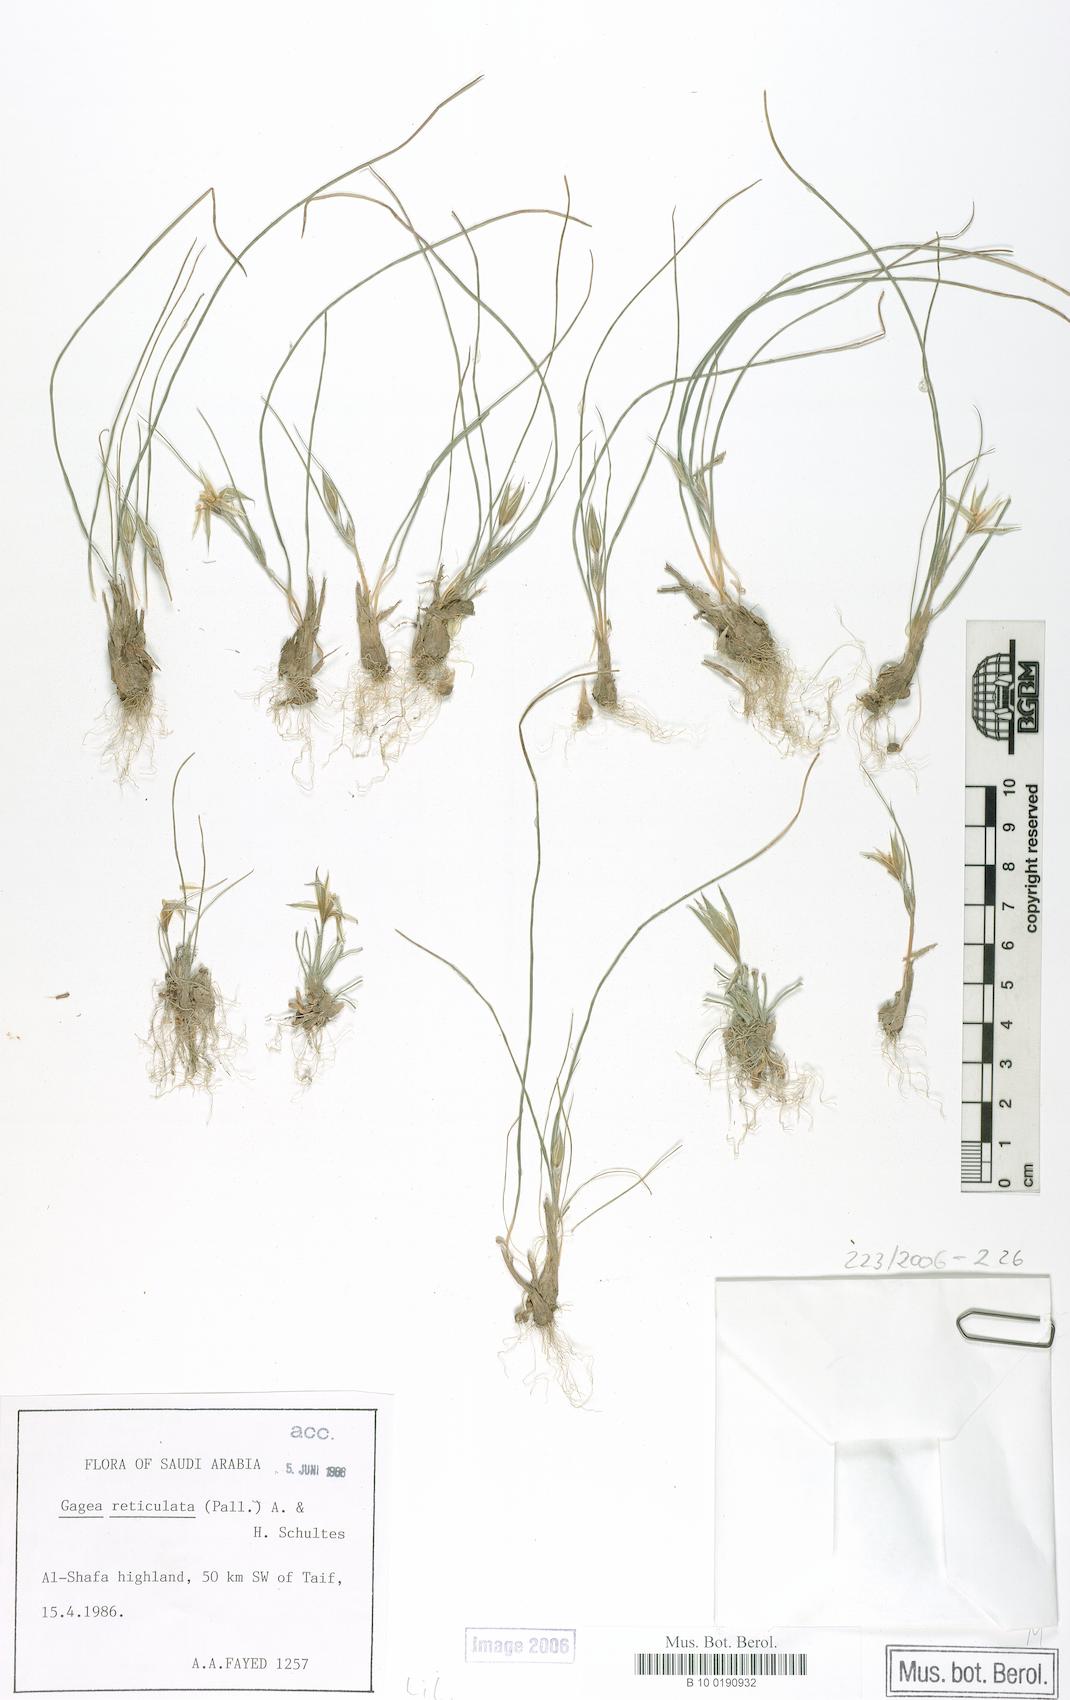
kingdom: Plantae
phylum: Tracheophyta
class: Liliopsida
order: Liliales
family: Liliaceae
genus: Gagea
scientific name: Gagea reticulata
